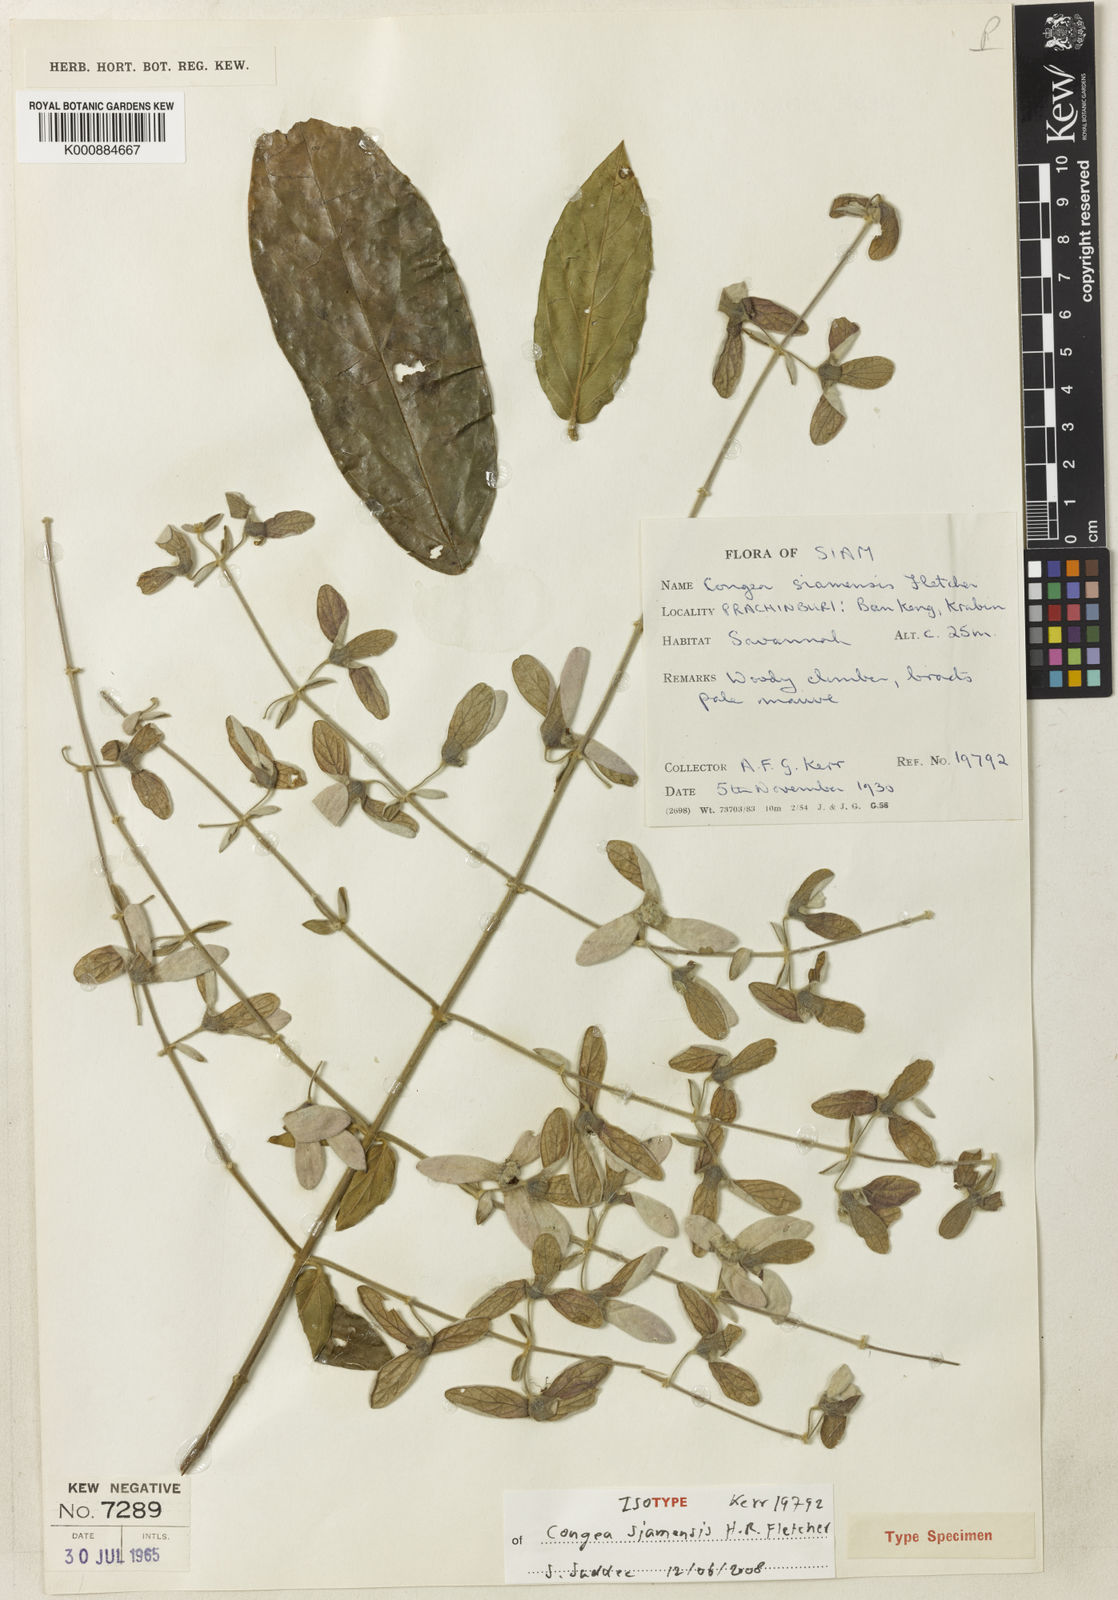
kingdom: Plantae
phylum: Tracheophyta
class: Magnoliopsida
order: Lamiales
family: Lamiaceae
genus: Congea
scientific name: Congea velutina
